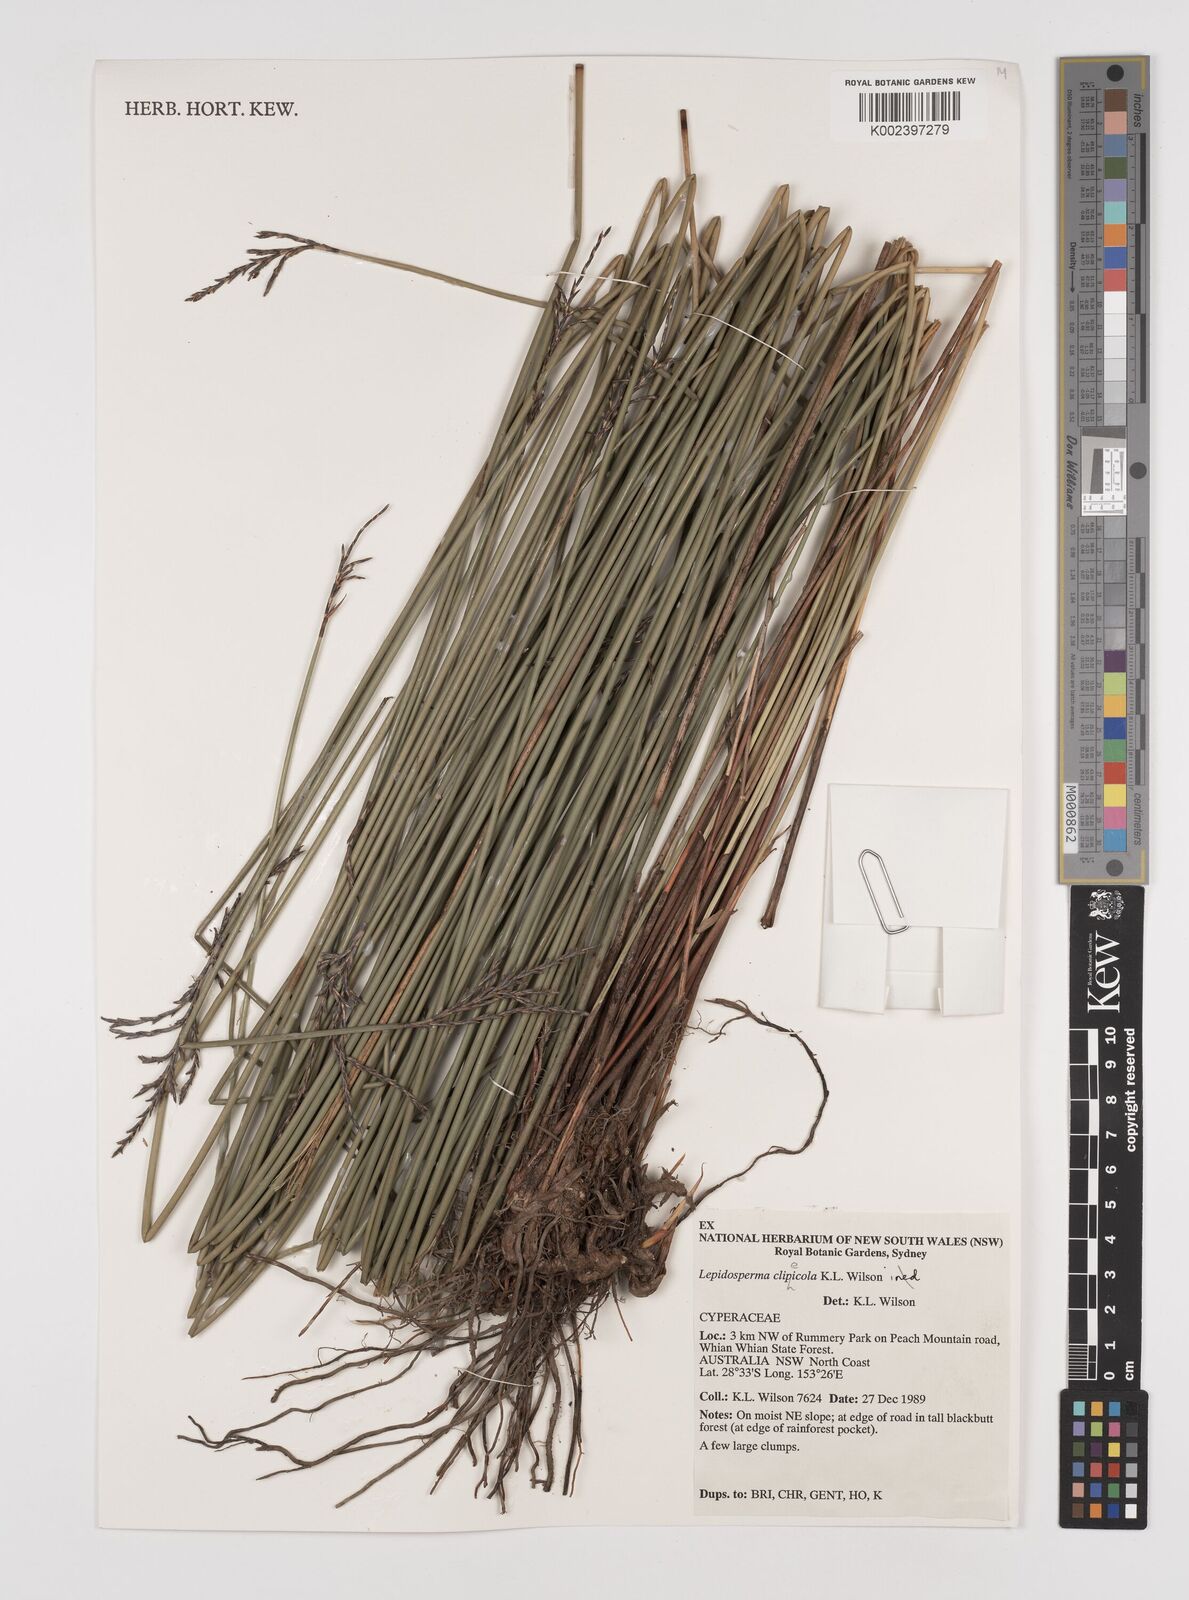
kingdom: Plantae
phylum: Tracheophyta
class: Liliopsida
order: Poales
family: Cyperaceae
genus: Lepidosperma
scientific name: Lepidosperma clipeicola
